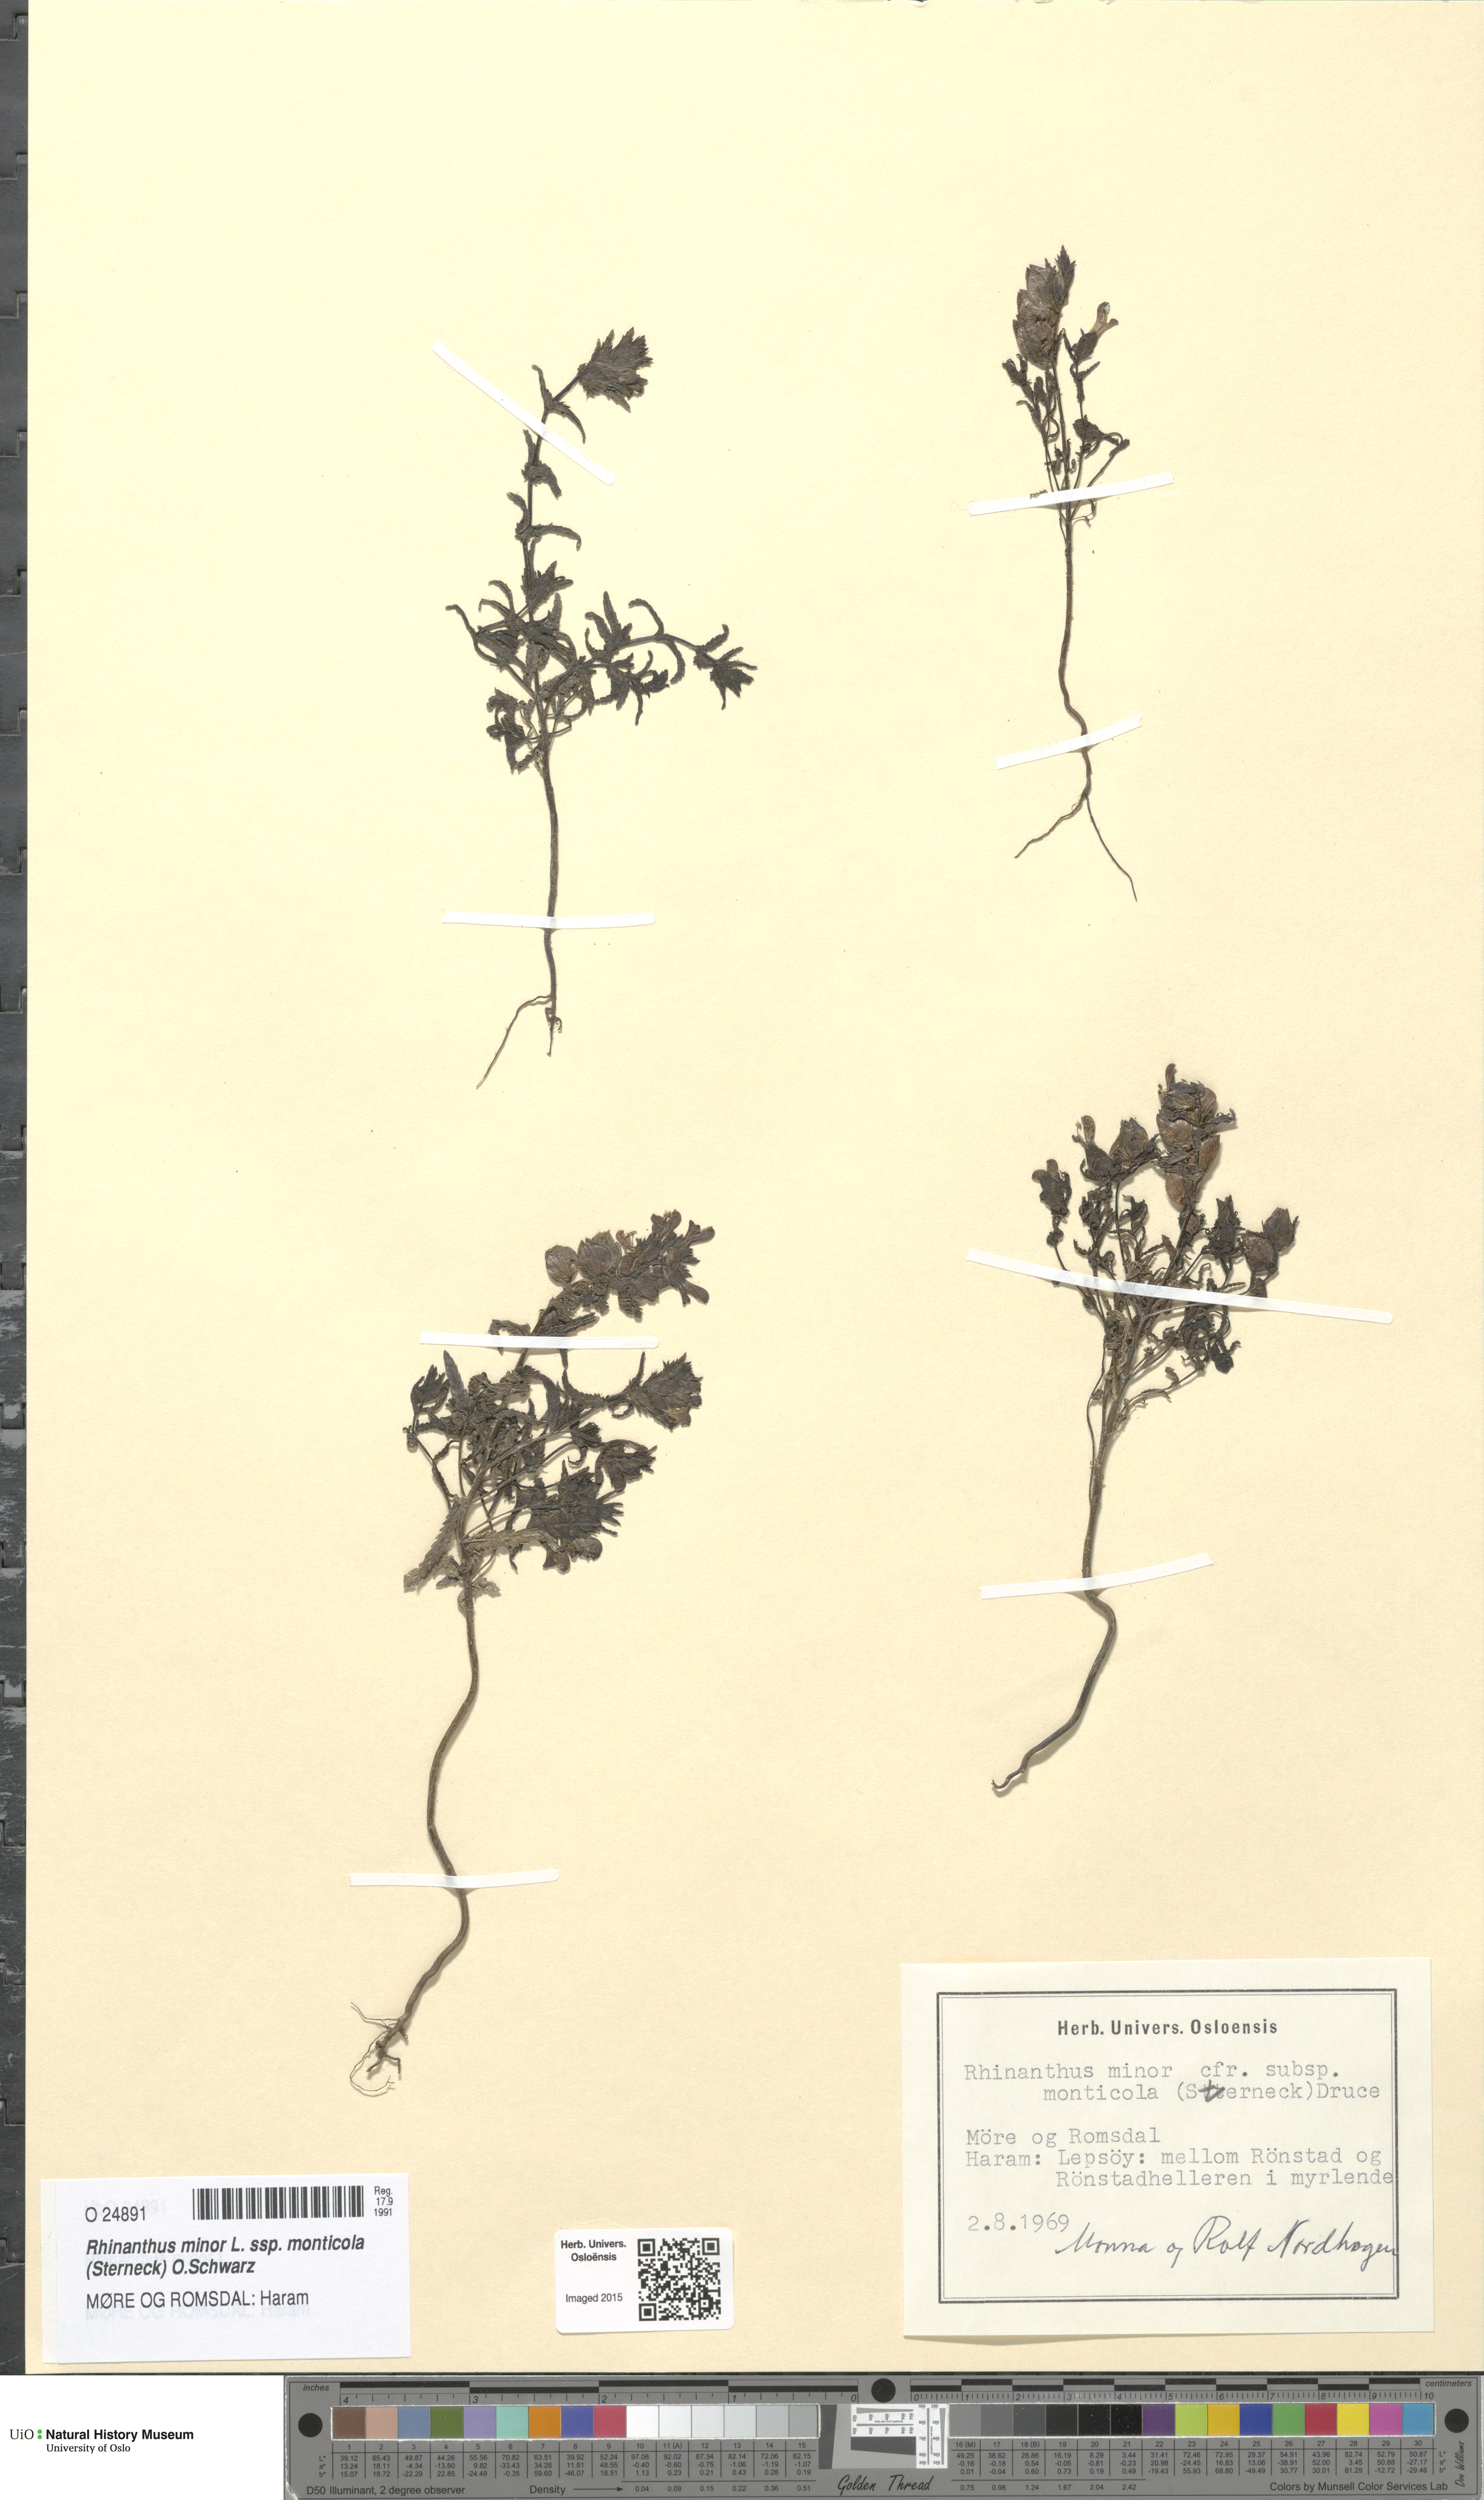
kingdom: Plantae
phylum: Tracheophyta
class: Magnoliopsida
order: Lamiales
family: Orobanchaceae
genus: Rhinanthus
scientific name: Rhinanthus minor
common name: Yellow-rattle
